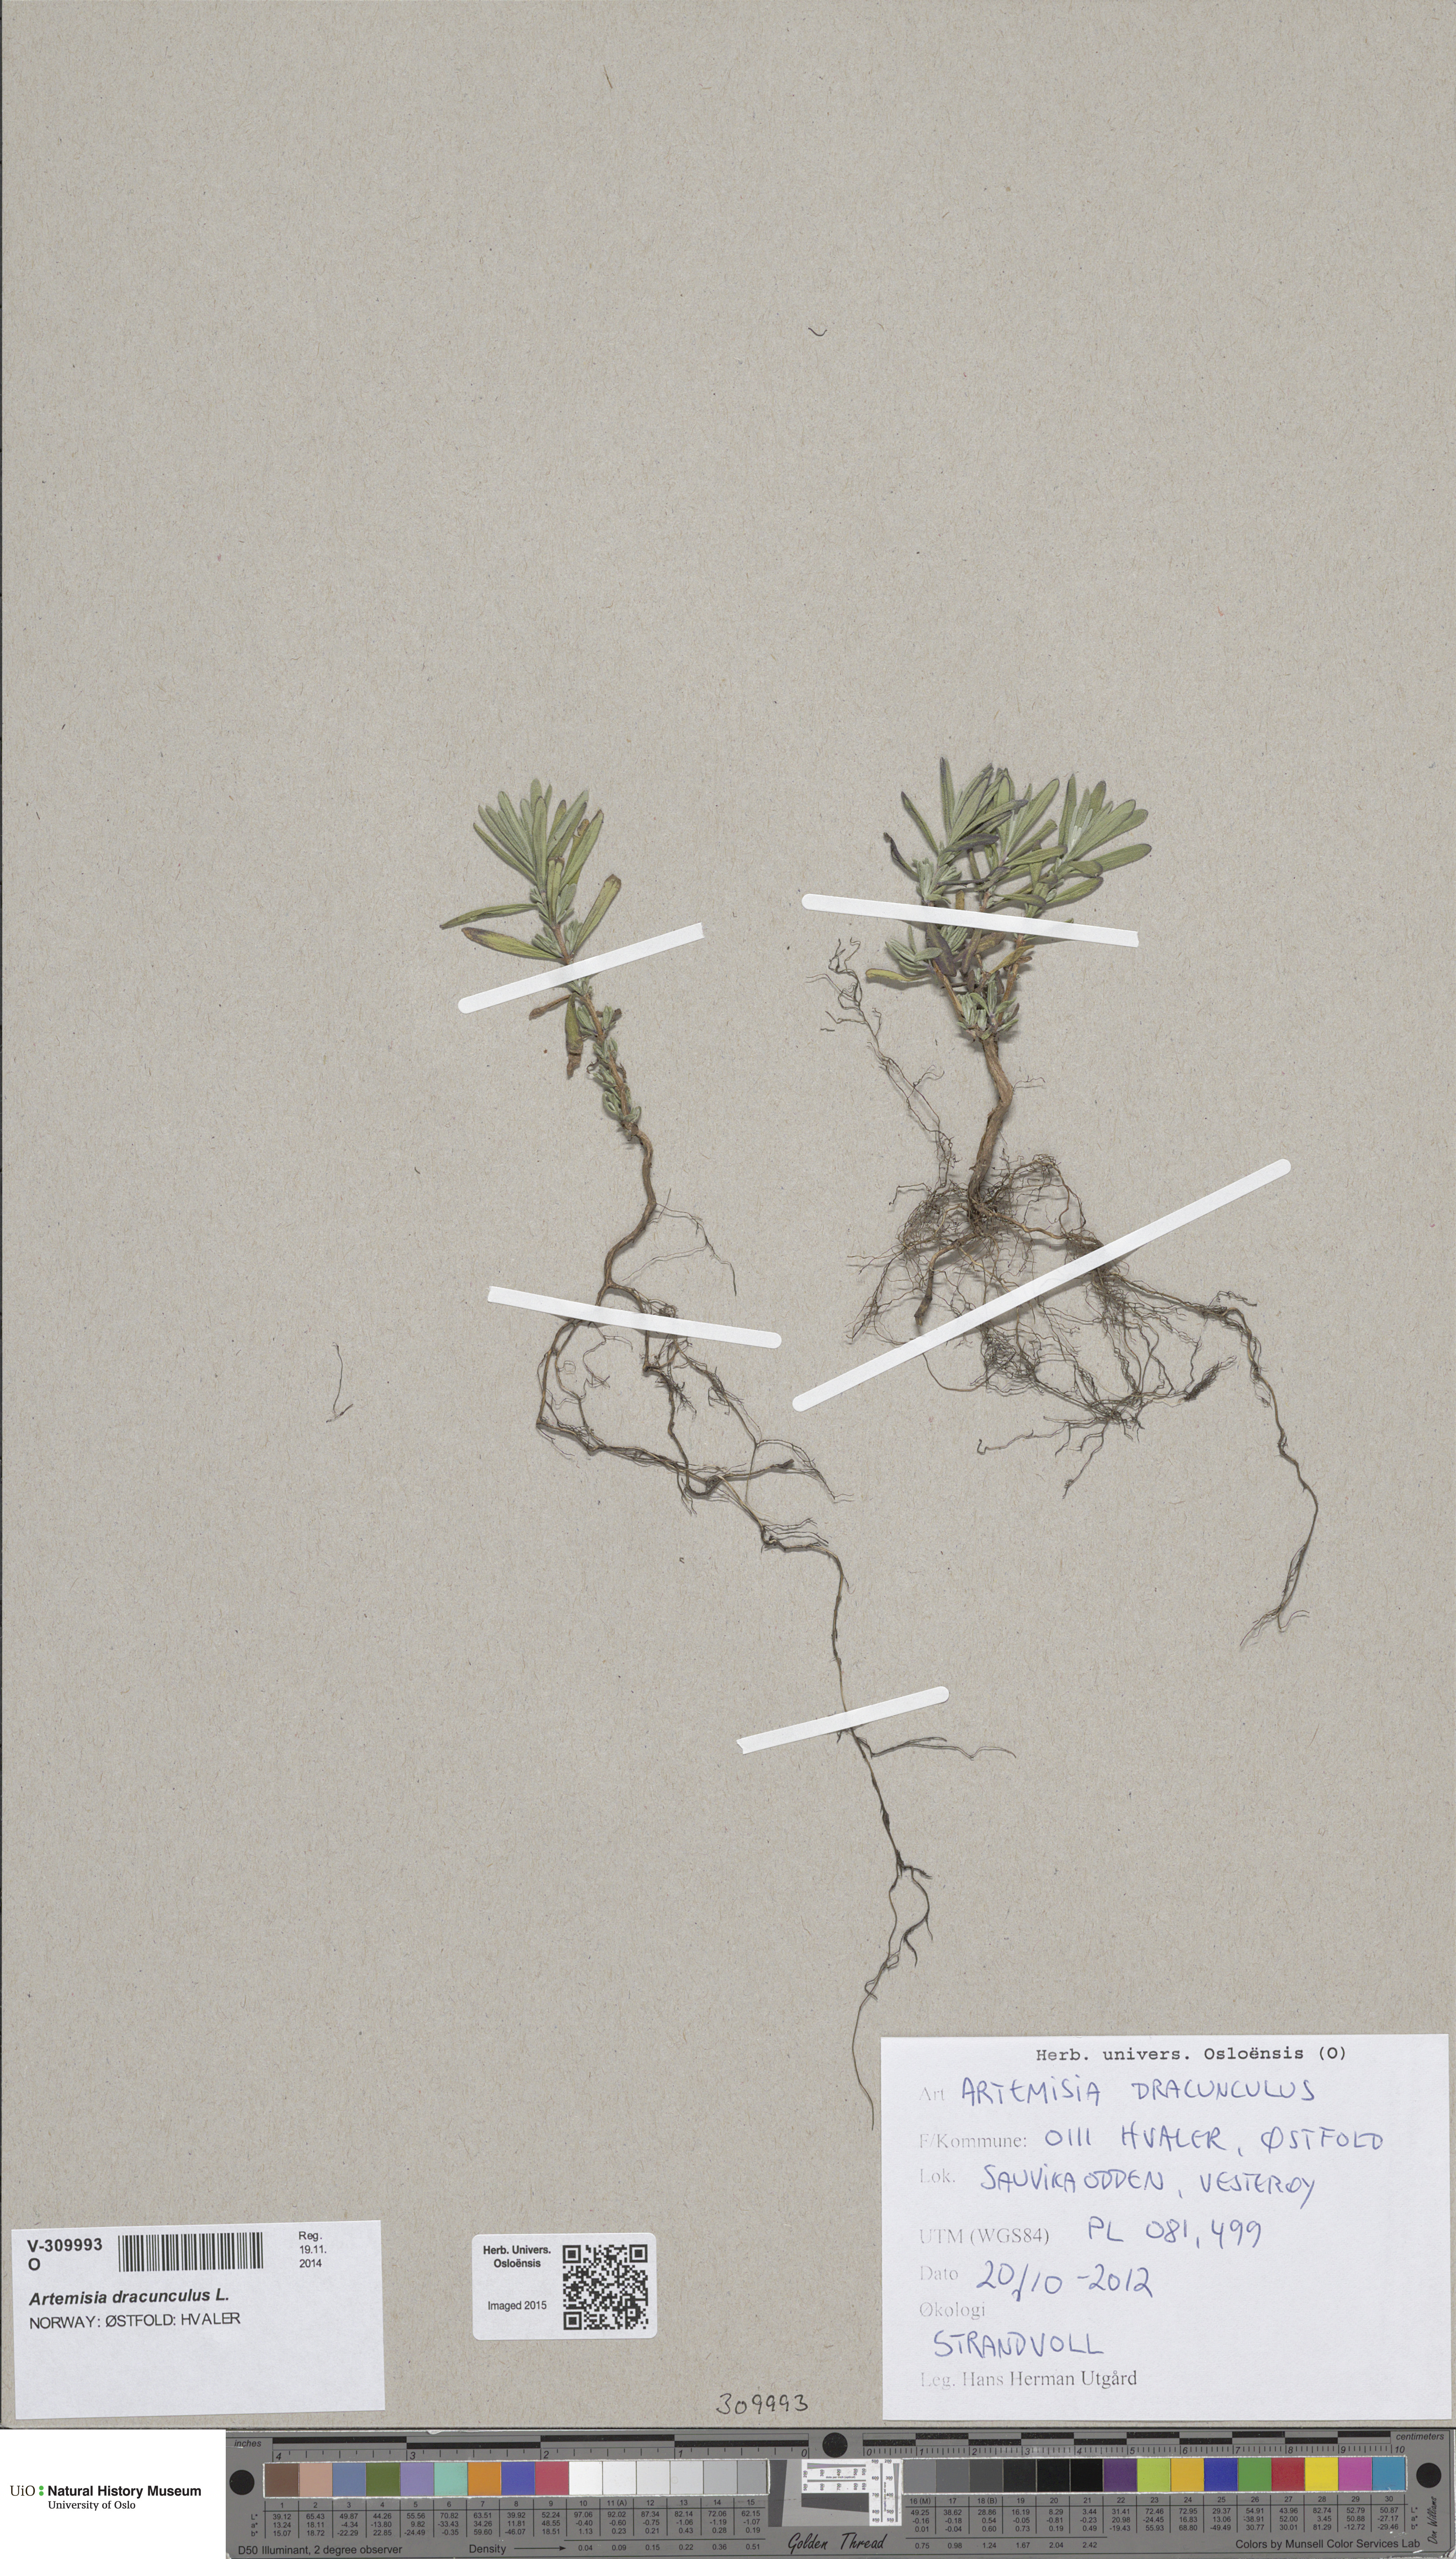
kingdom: Plantae
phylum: Tracheophyta
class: Magnoliopsida
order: Asterales
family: Asteraceae
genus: Artemisia
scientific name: Artemisia dracunculus
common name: Tarragon
